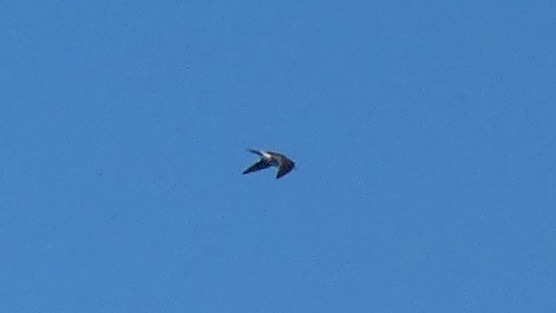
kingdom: Animalia
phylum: Chordata
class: Aves
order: Charadriiformes
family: Scolopacidae
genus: Tringa
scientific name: Tringa ochropus
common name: Svaleklire
